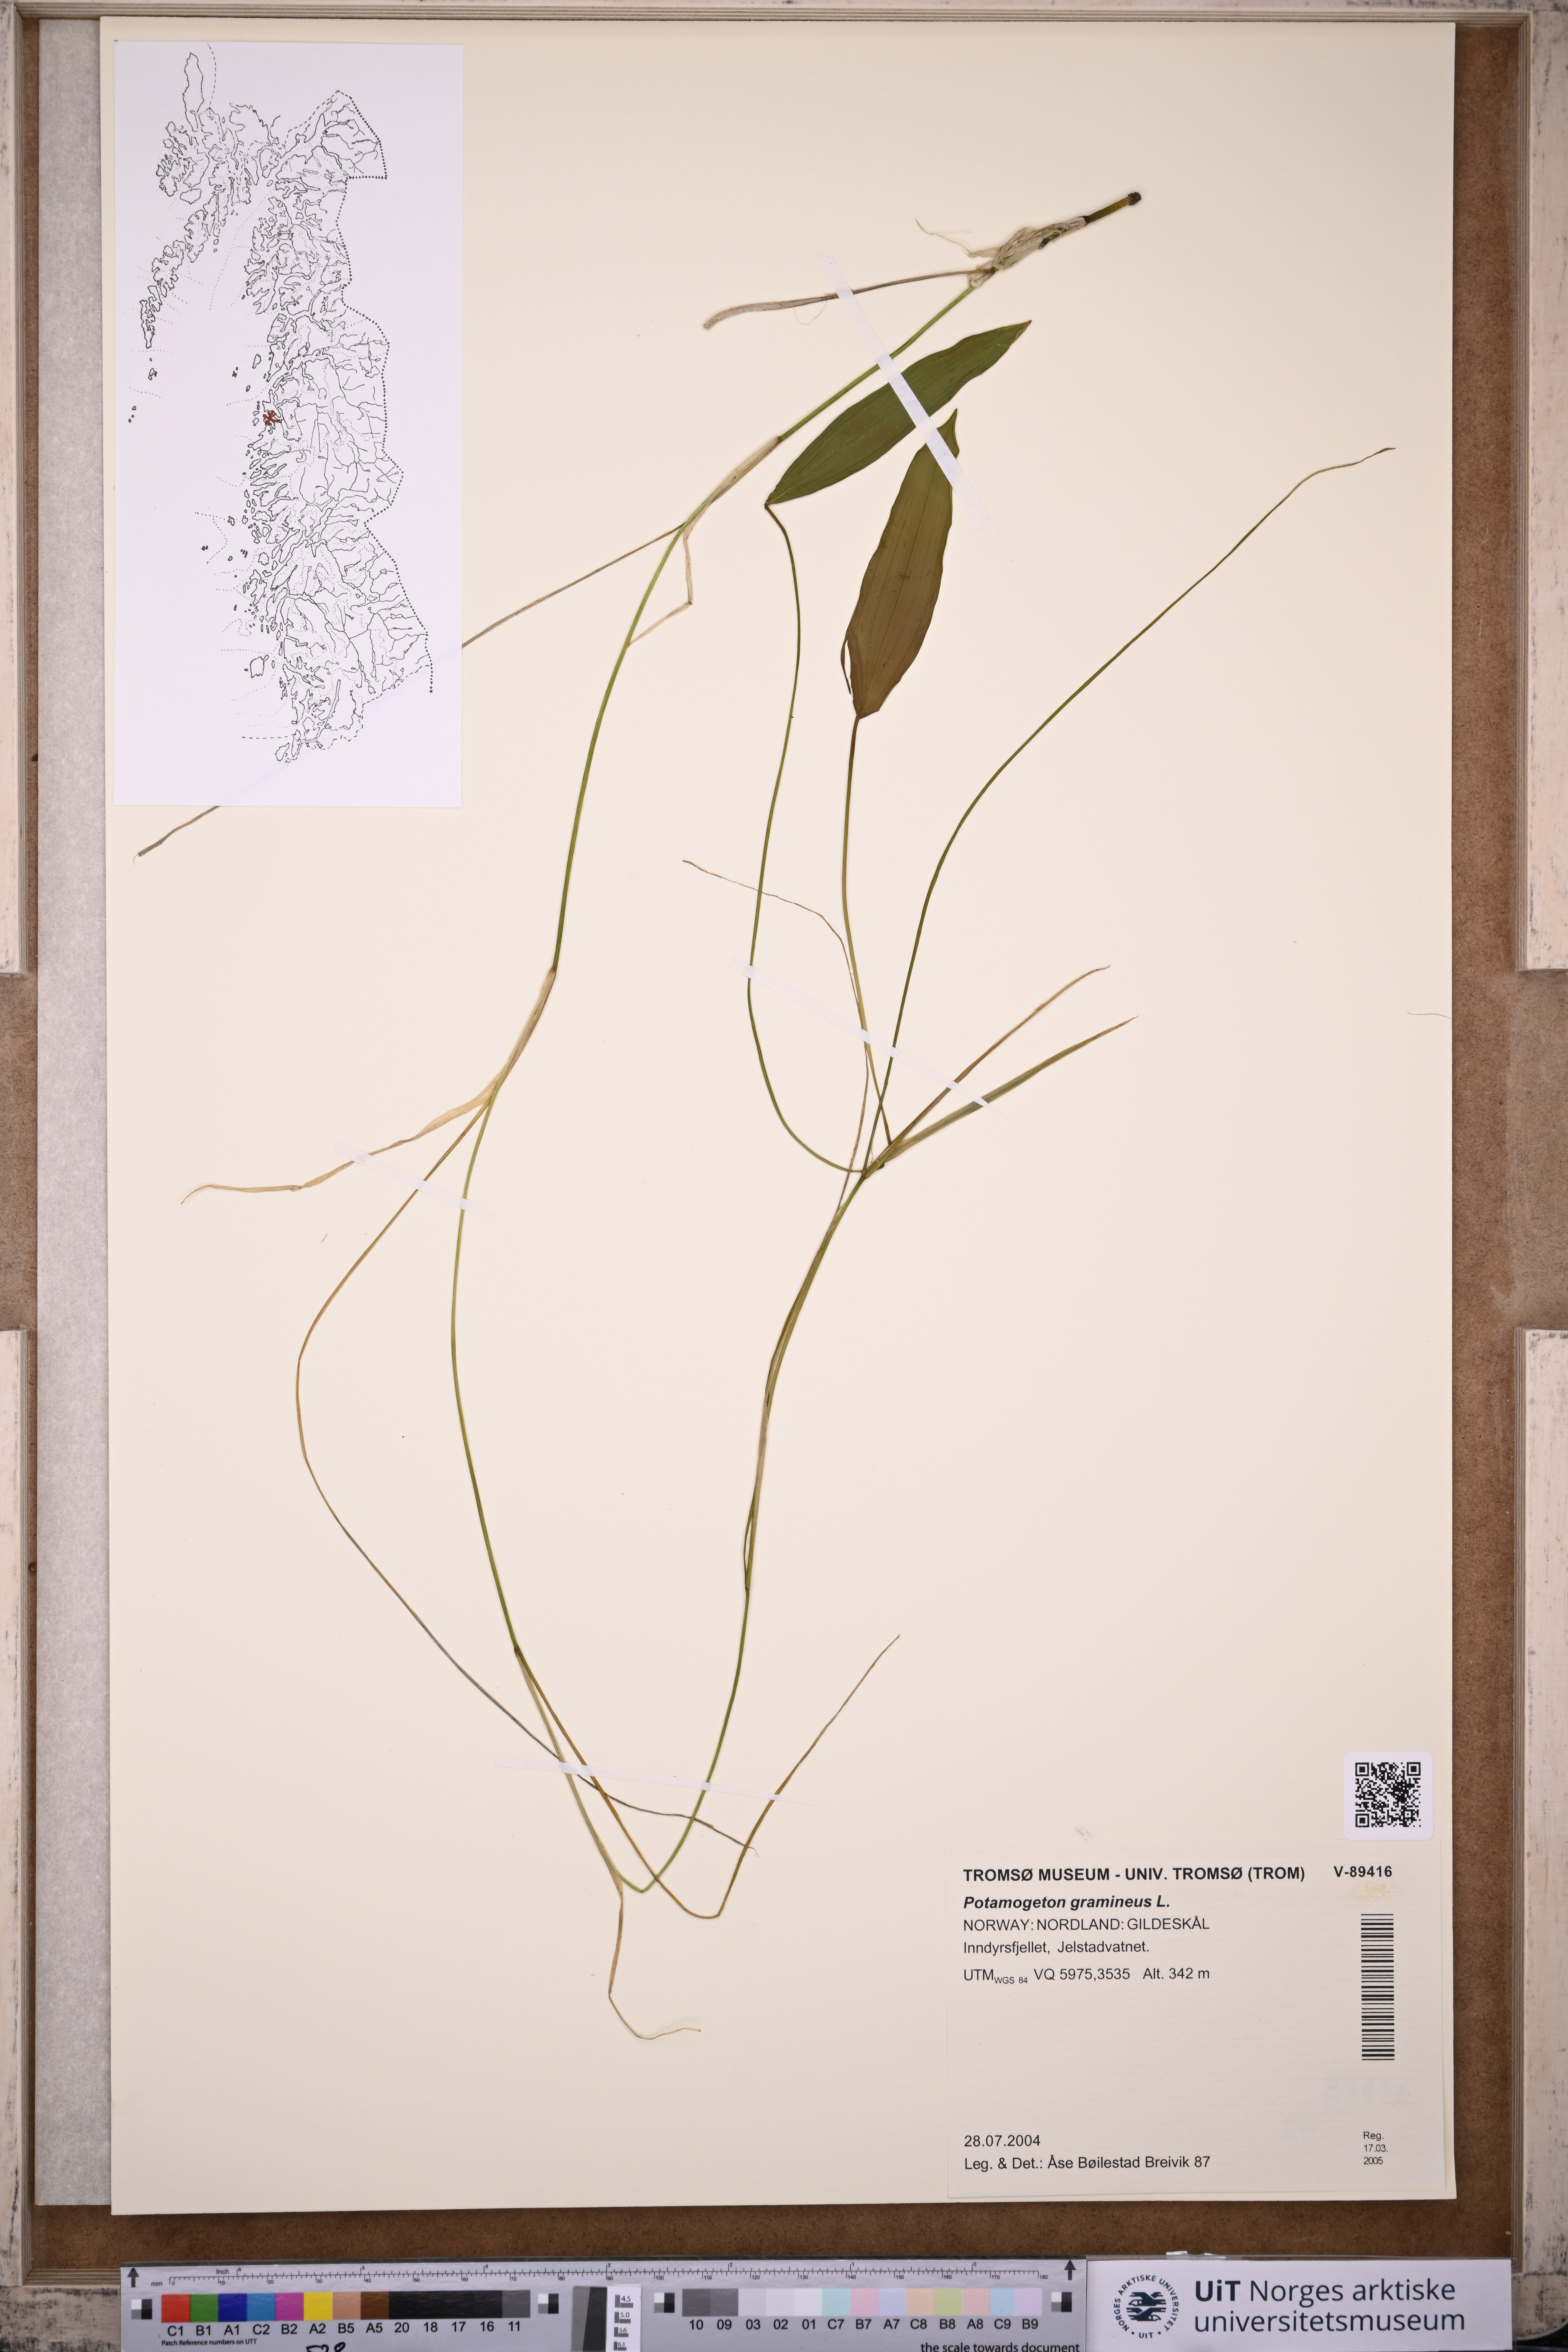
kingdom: Plantae
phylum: Tracheophyta
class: Liliopsida
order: Alismatales
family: Potamogetonaceae
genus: Potamogeton
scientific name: Potamogeton gramineus
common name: Various-leaved pondweed
